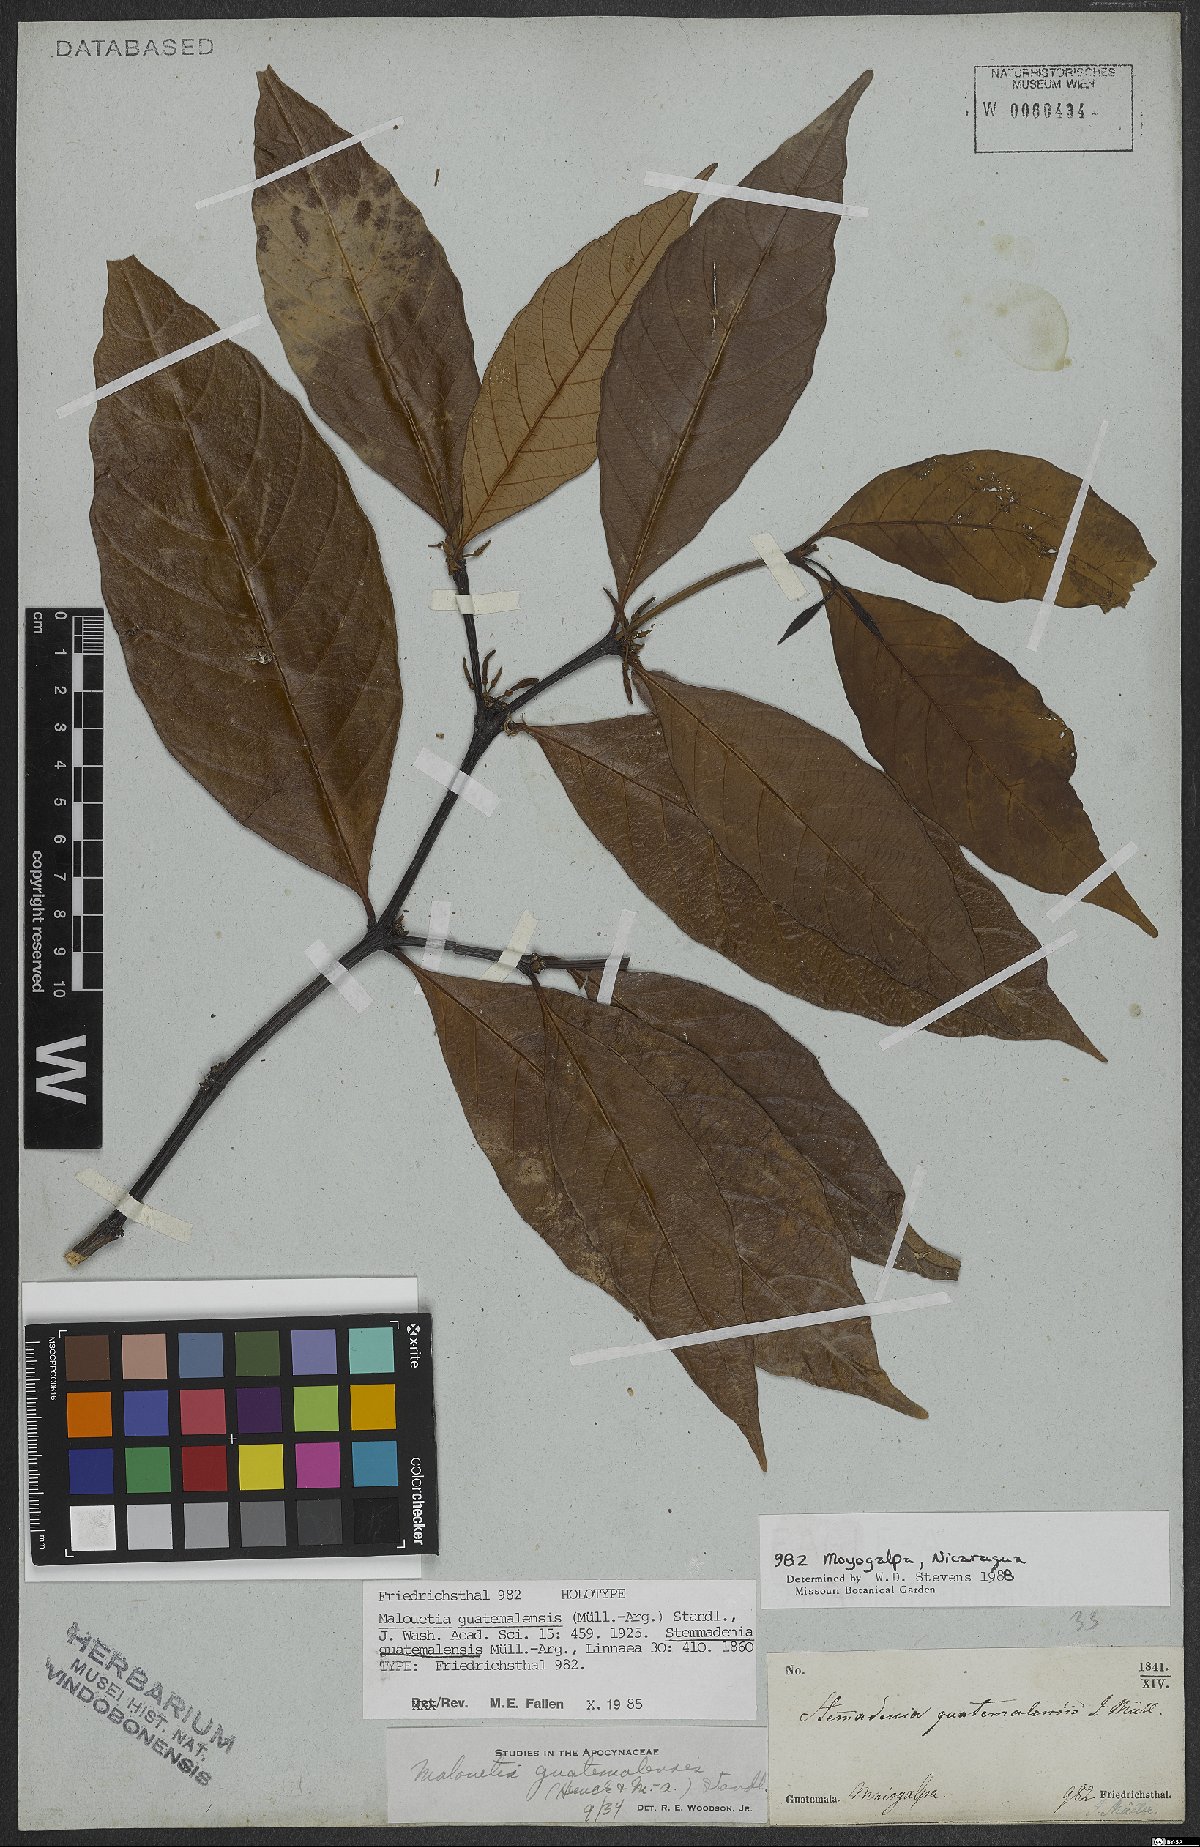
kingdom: Plantae
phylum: Tracheophyta
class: Magnoliopsida
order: Gentianales
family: Apocynaceae
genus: Malouetia
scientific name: Malouetia guatemalensis
